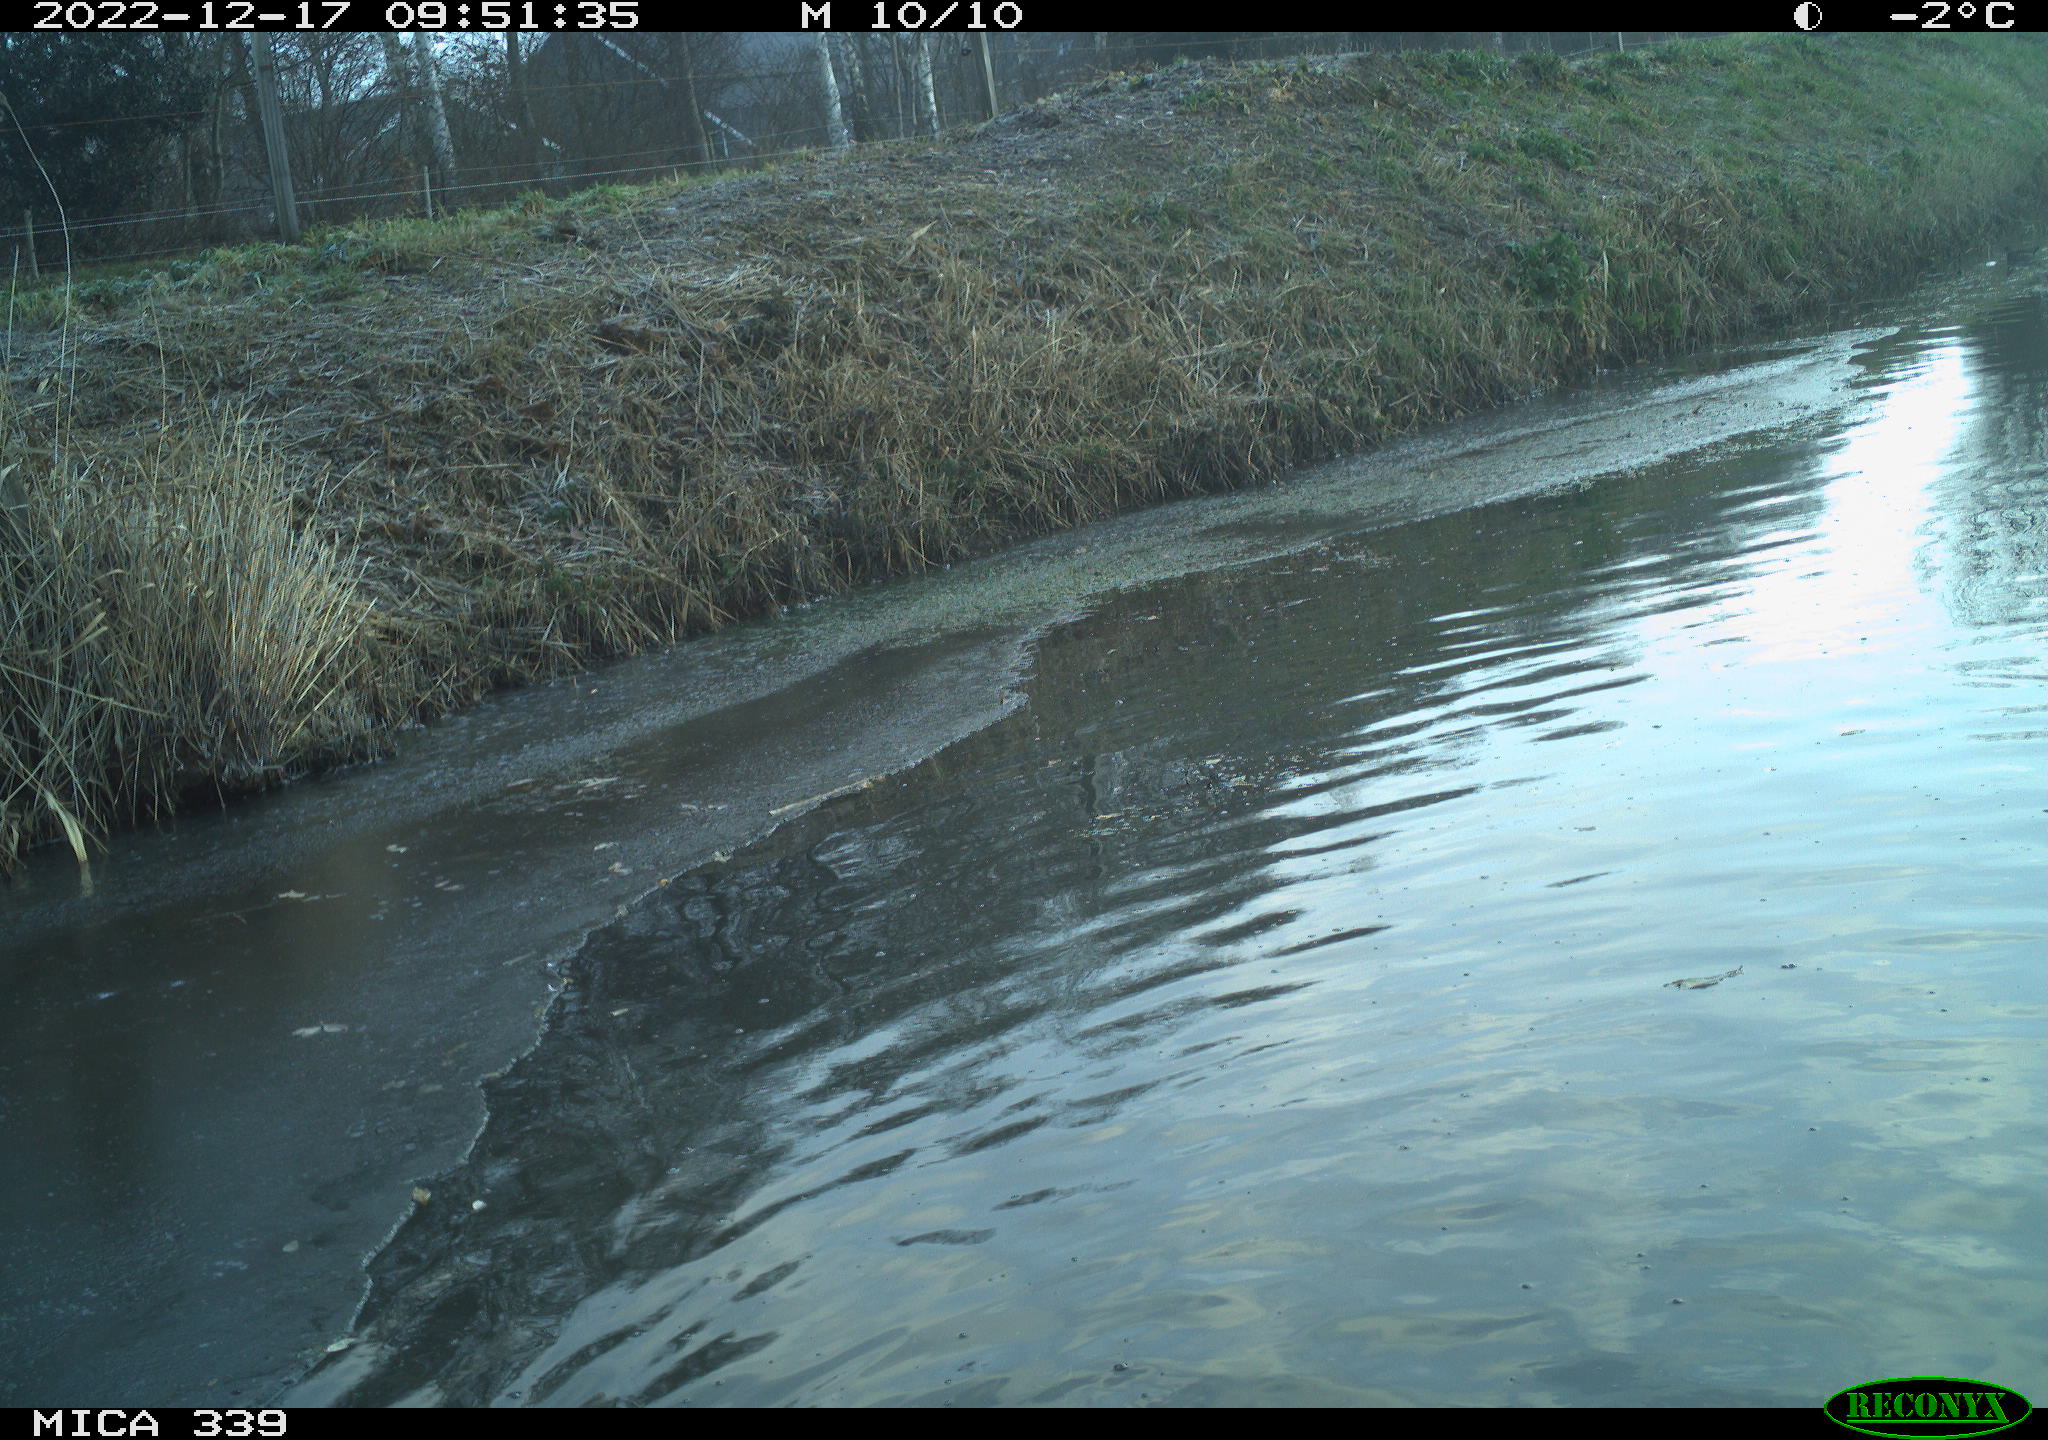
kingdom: Animalia
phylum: Chordata
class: Aves
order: Anseriformes
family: Anatidae
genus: Anas
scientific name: Anas
